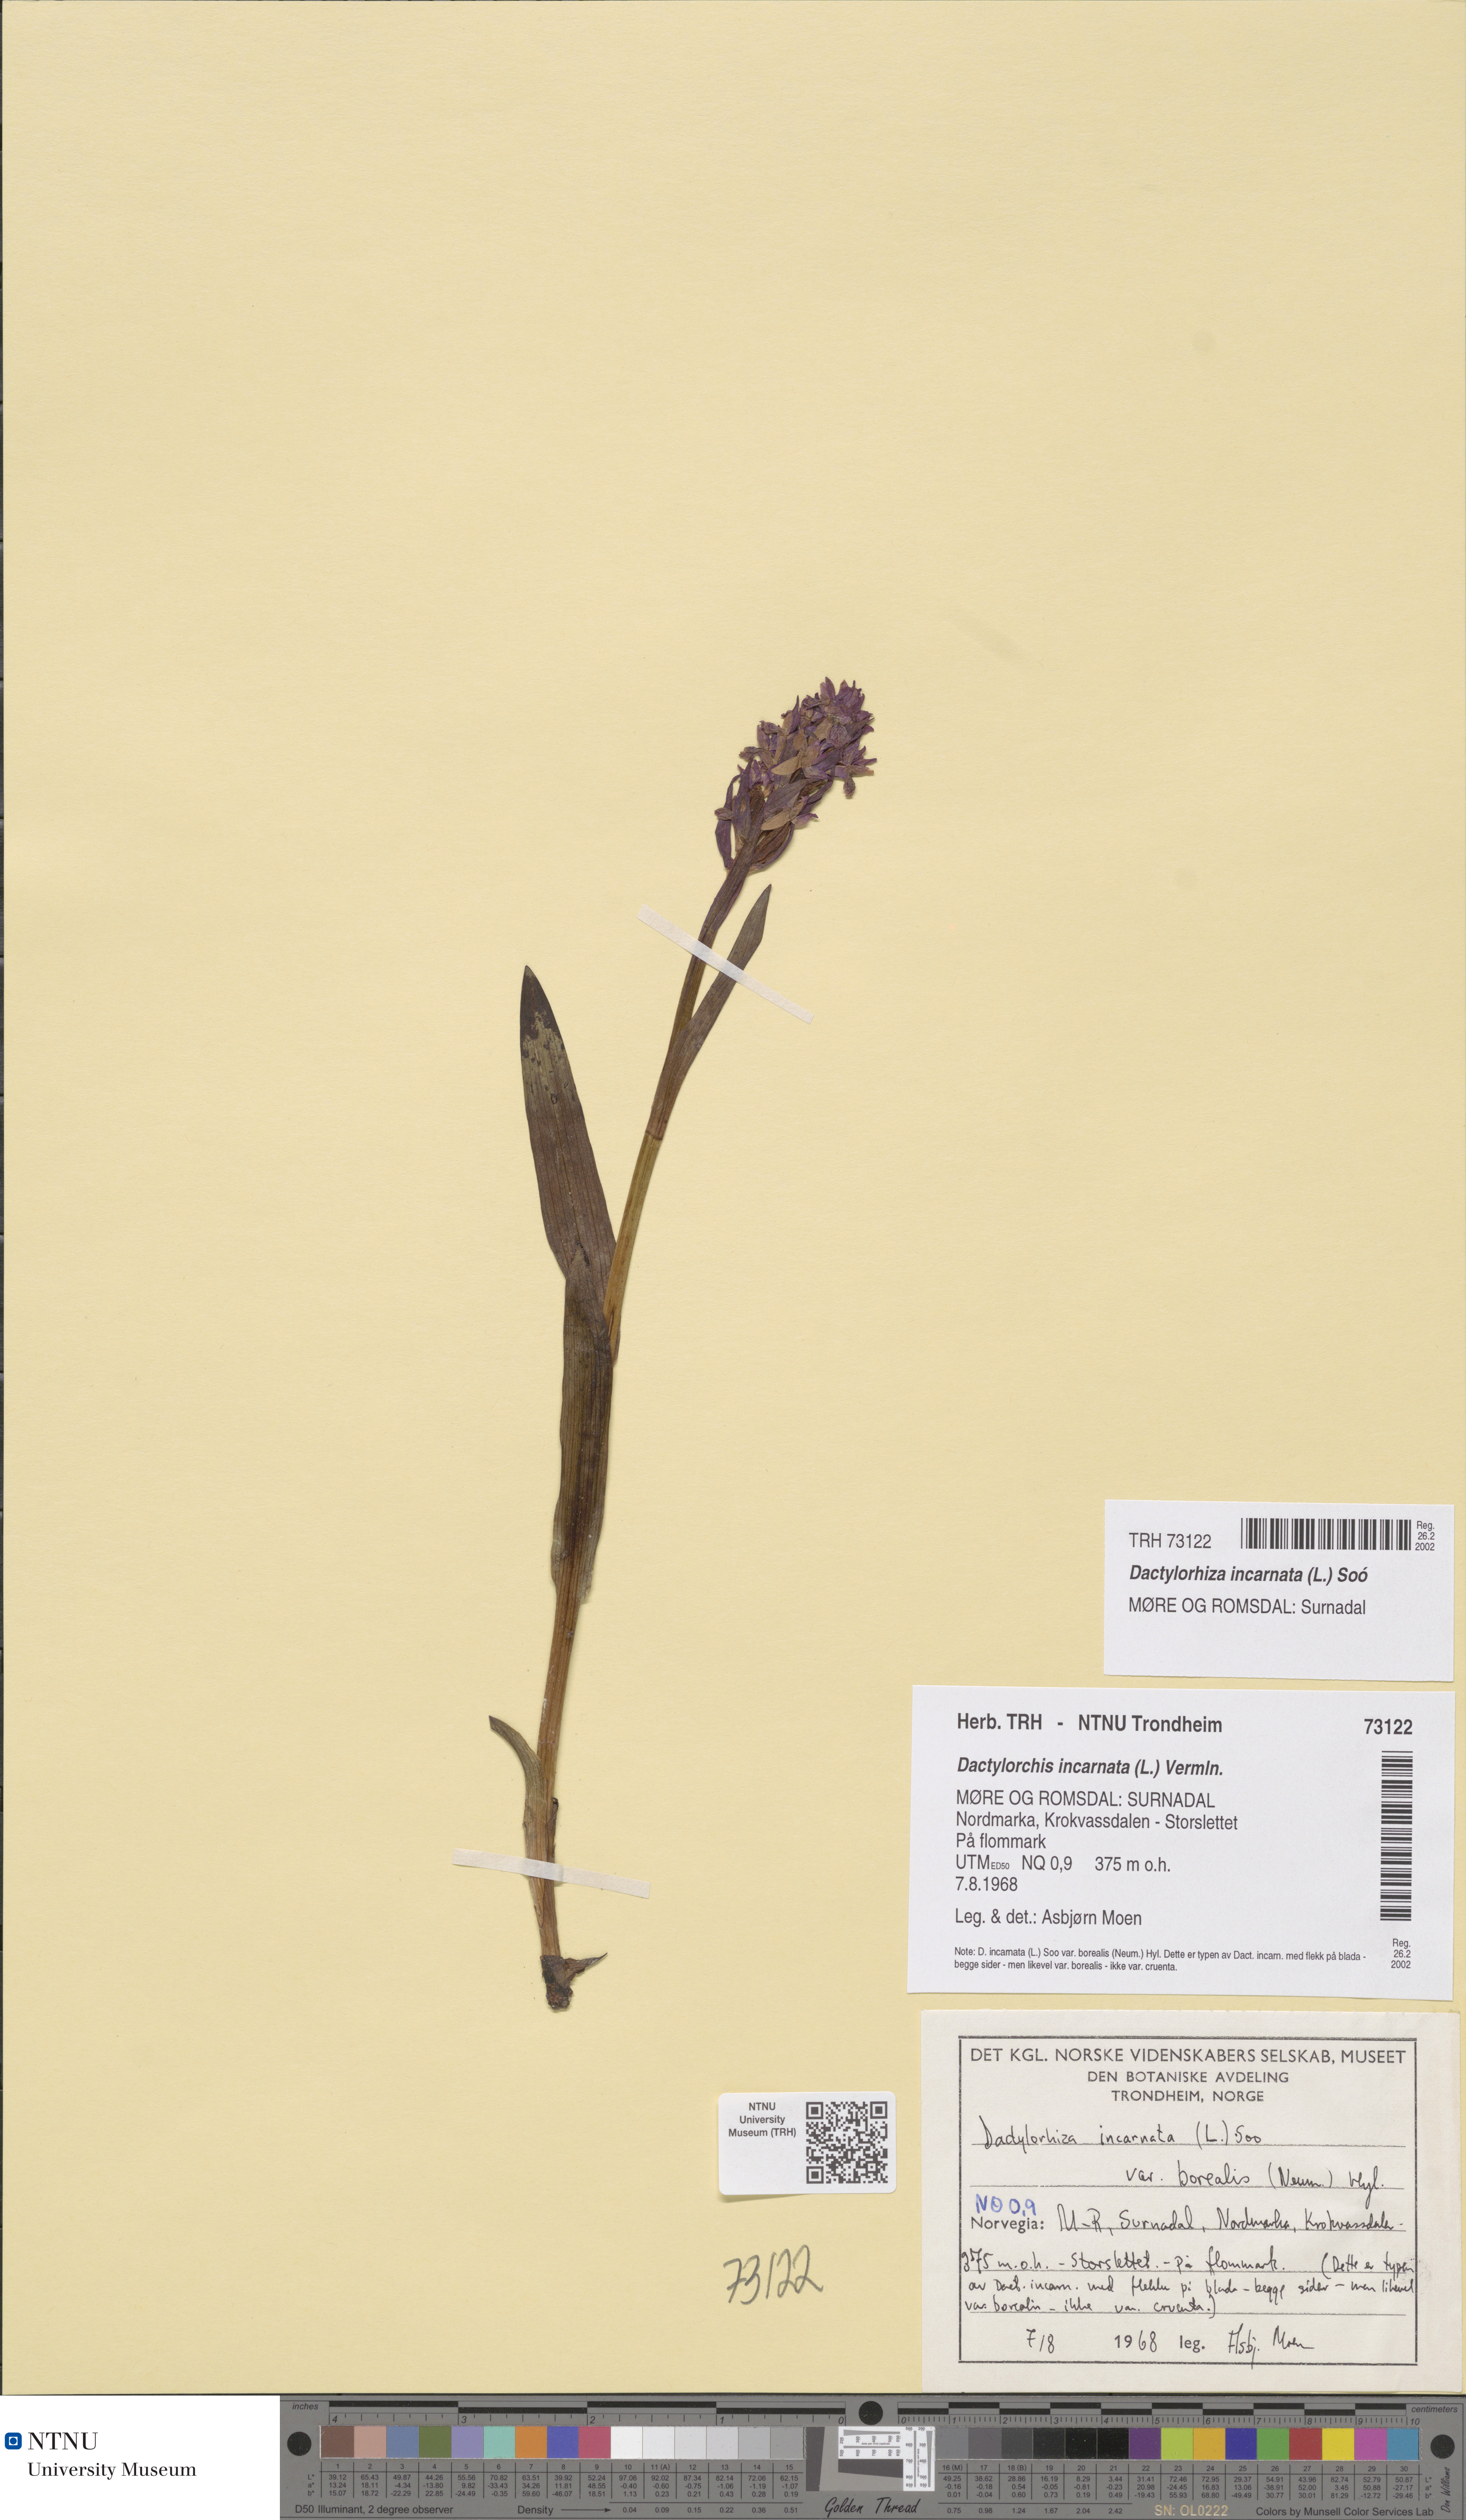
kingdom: Plantae
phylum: Tracheophyta
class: Liliopsida
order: Asparagales
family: Orchidaceae
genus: Dactylorhiza
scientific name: Dactylorhiza incarnata
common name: Early marsh-orchid
